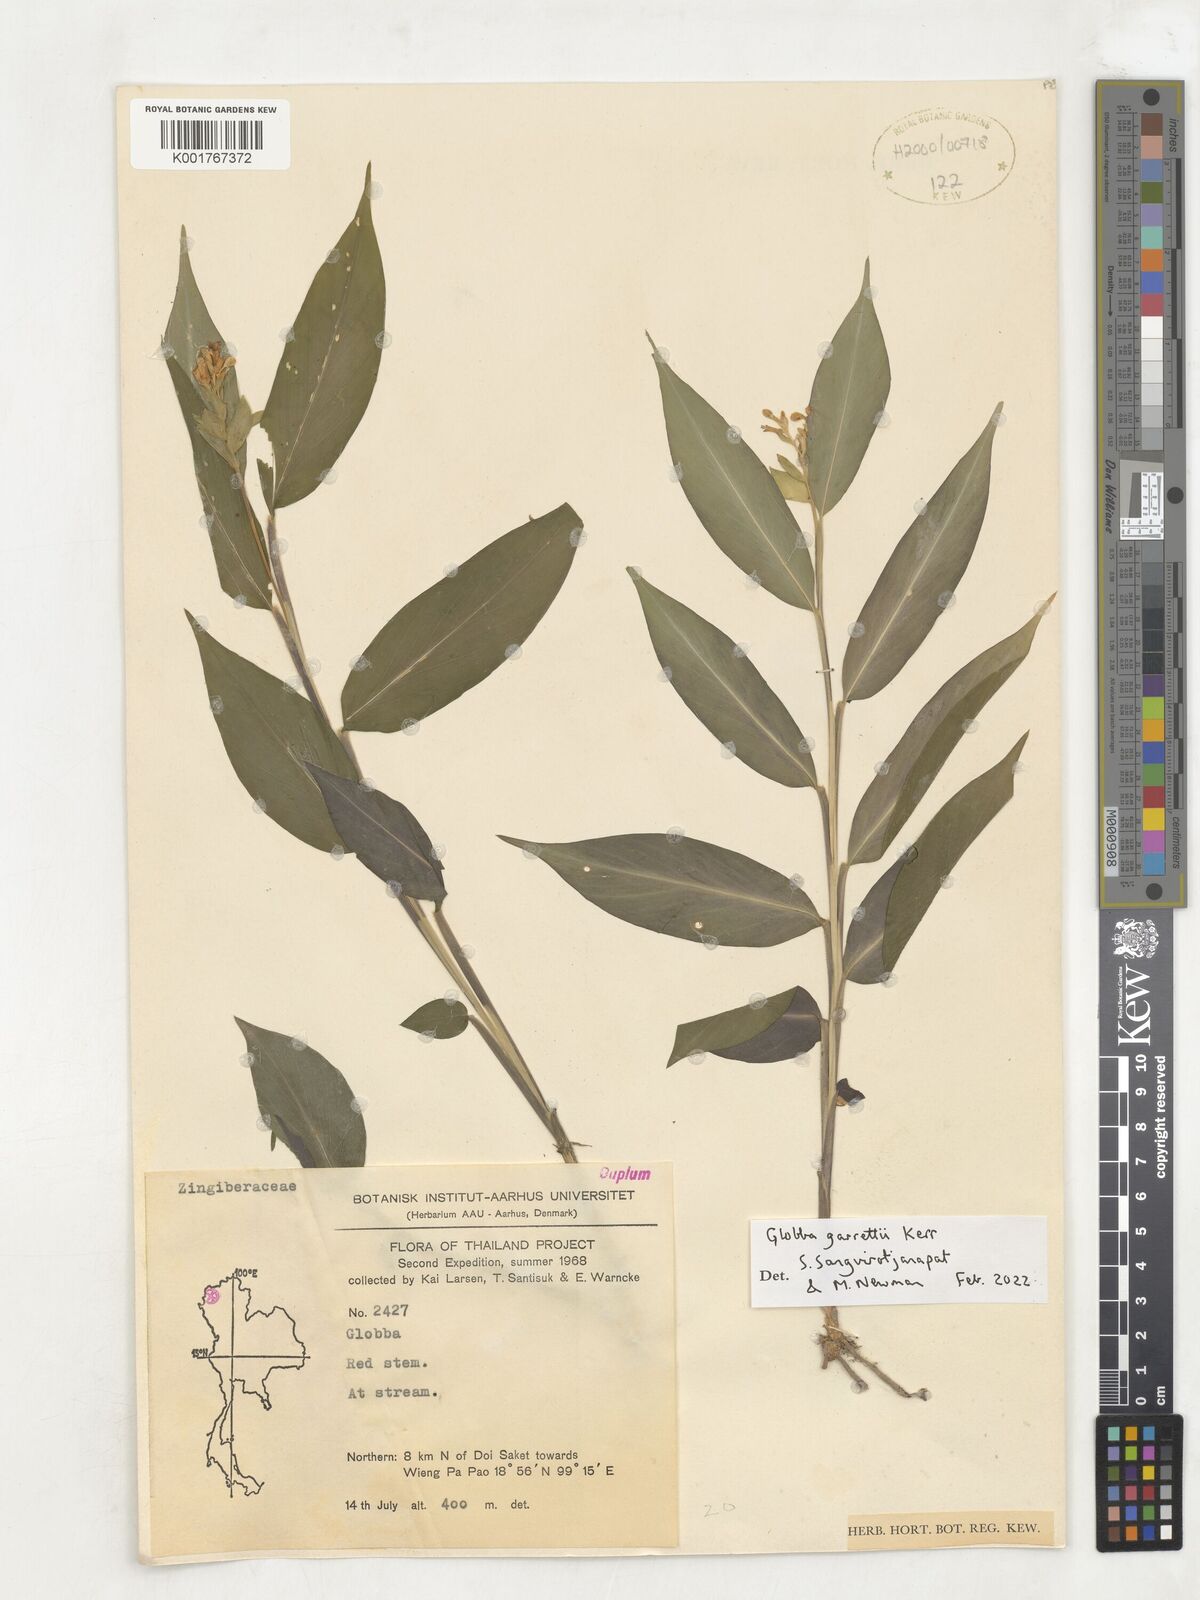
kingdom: Plantae
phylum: Tracheophyta
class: Liliopsida
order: Zingiberales
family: Zingiberaceae
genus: Globba
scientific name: Globba garrettii
